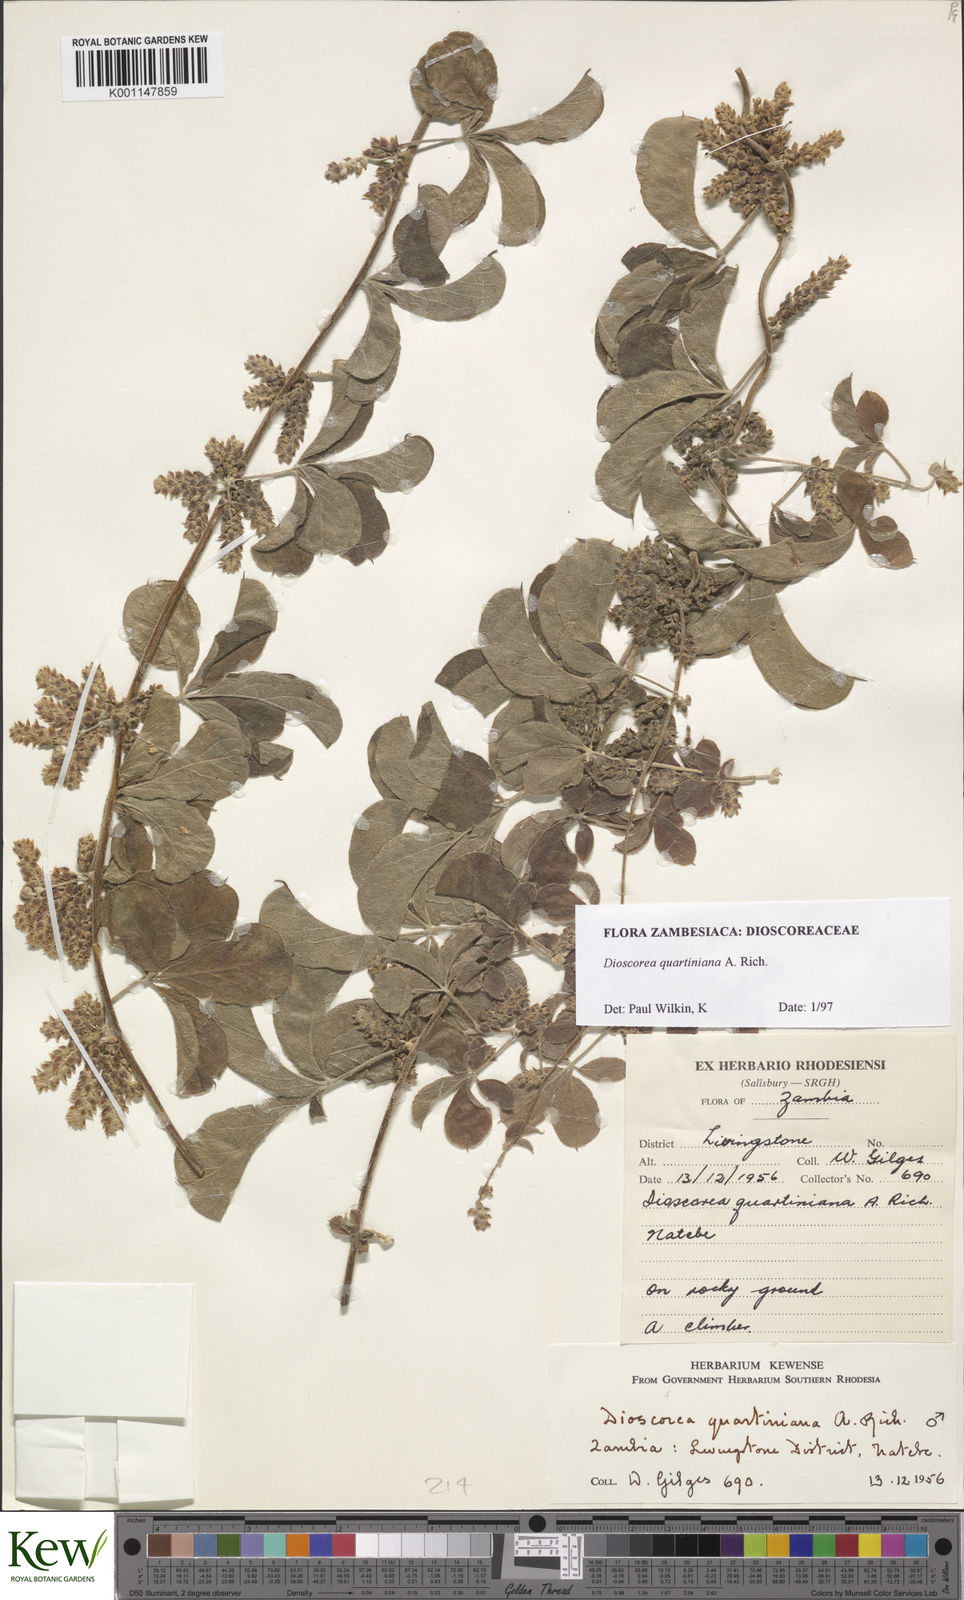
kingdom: Plantae
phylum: Tracheophyta
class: Liliopsida
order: Dioscoreales
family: Dioscoreaceae
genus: Dioscorea
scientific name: Dioscorea quartiniana
